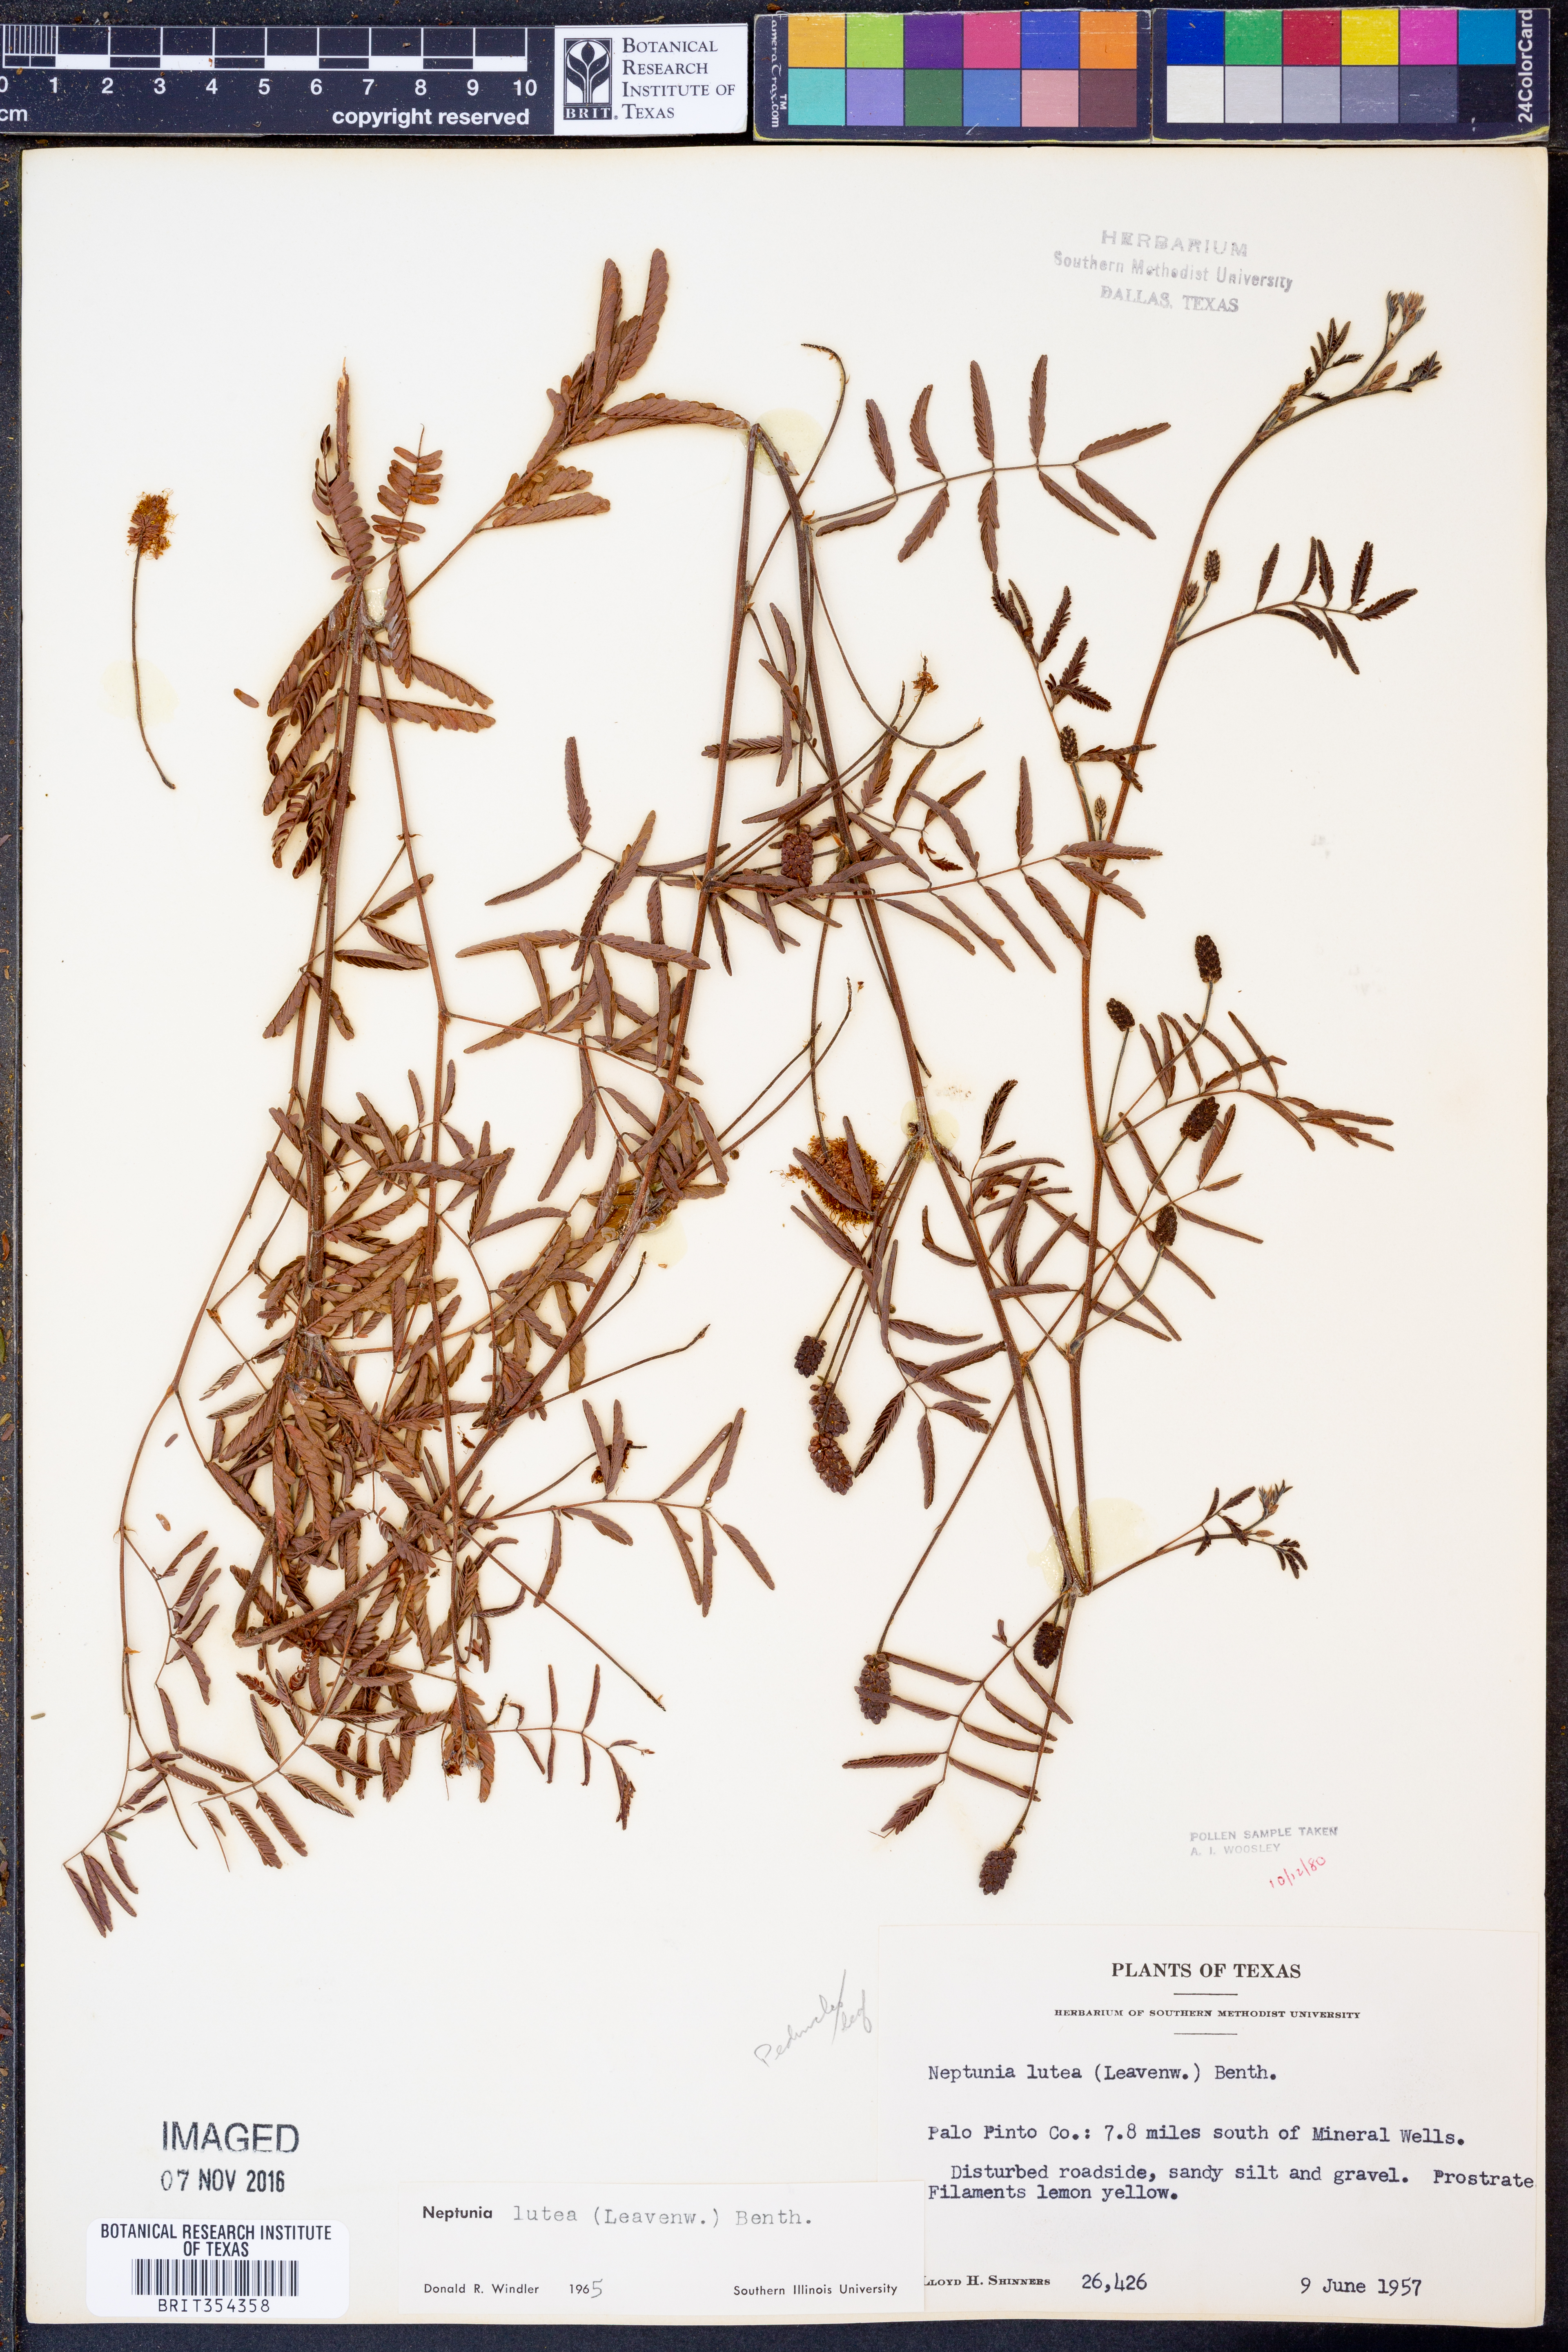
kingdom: Plantae
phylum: Tracheophyta
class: Magnoliopsida
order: Fabales
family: Fabaceae
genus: Neptunia
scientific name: Neptunia lutea
